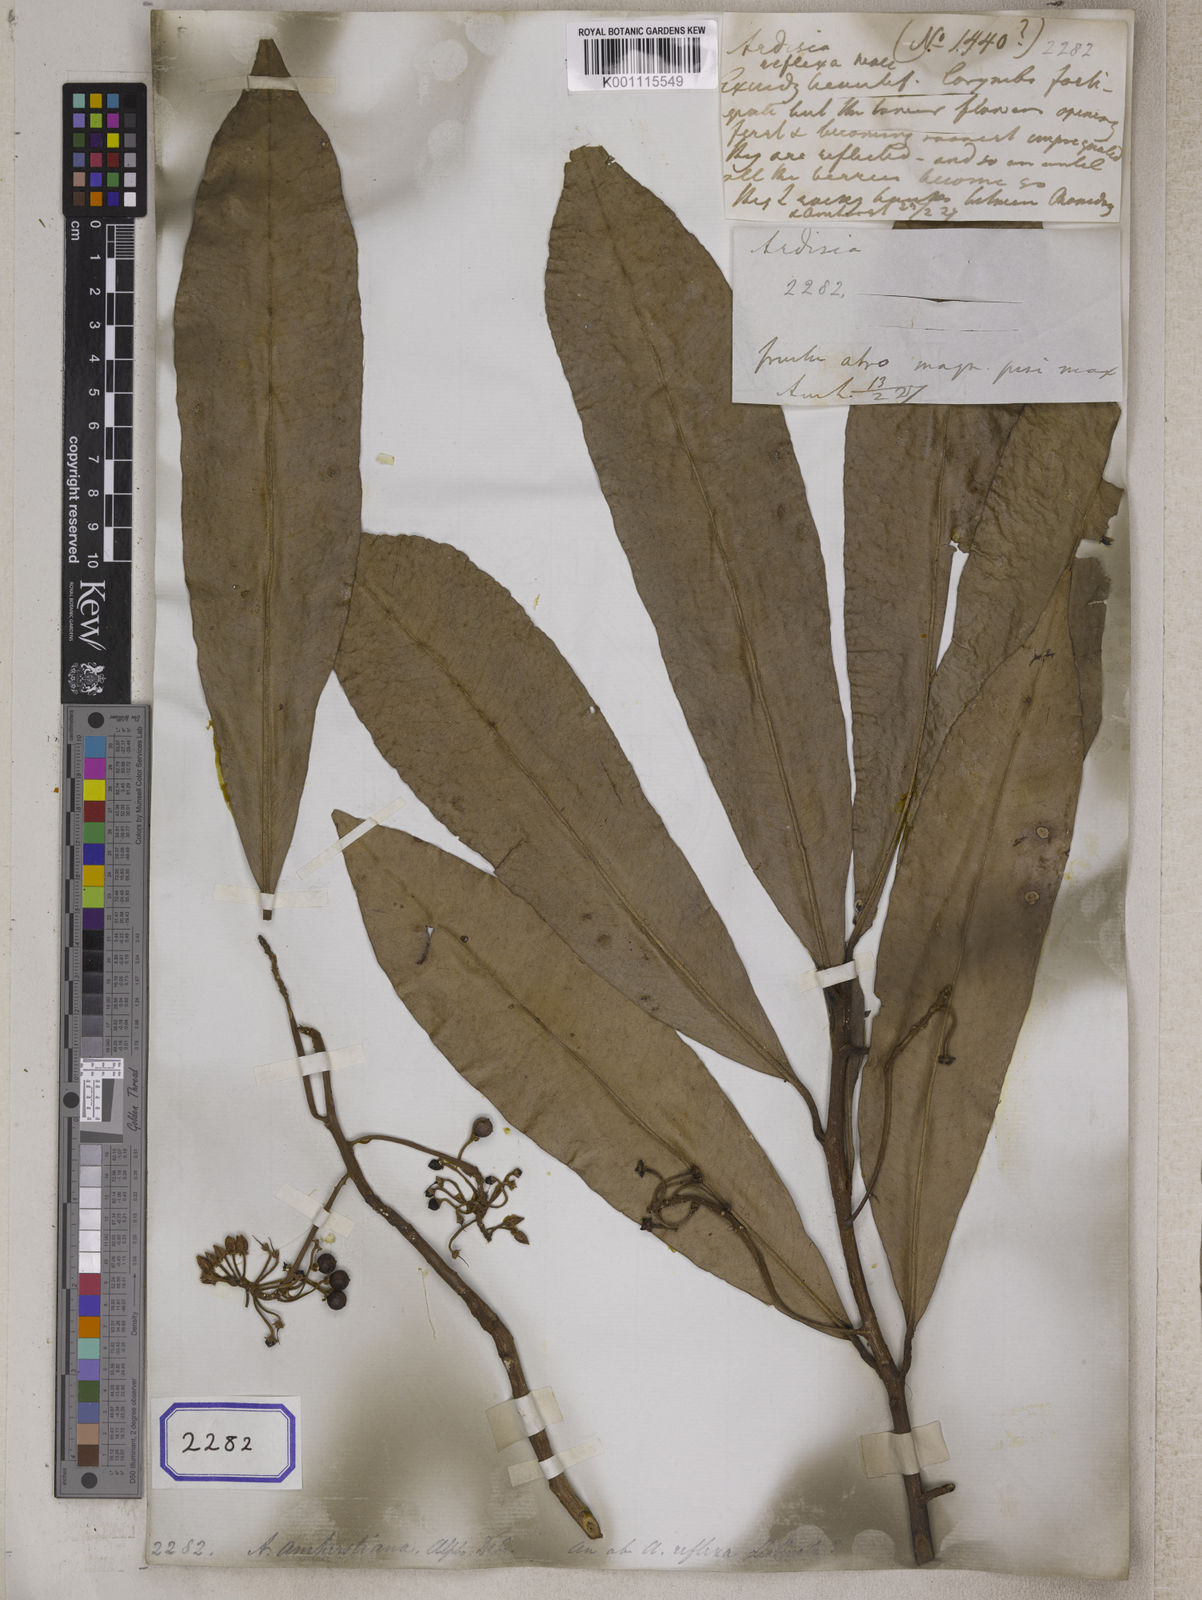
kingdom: Plantae
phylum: Tracheophyta
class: Magnoliopsida
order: Ericales
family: Primulaceae
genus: Ardisia
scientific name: Ardisia
